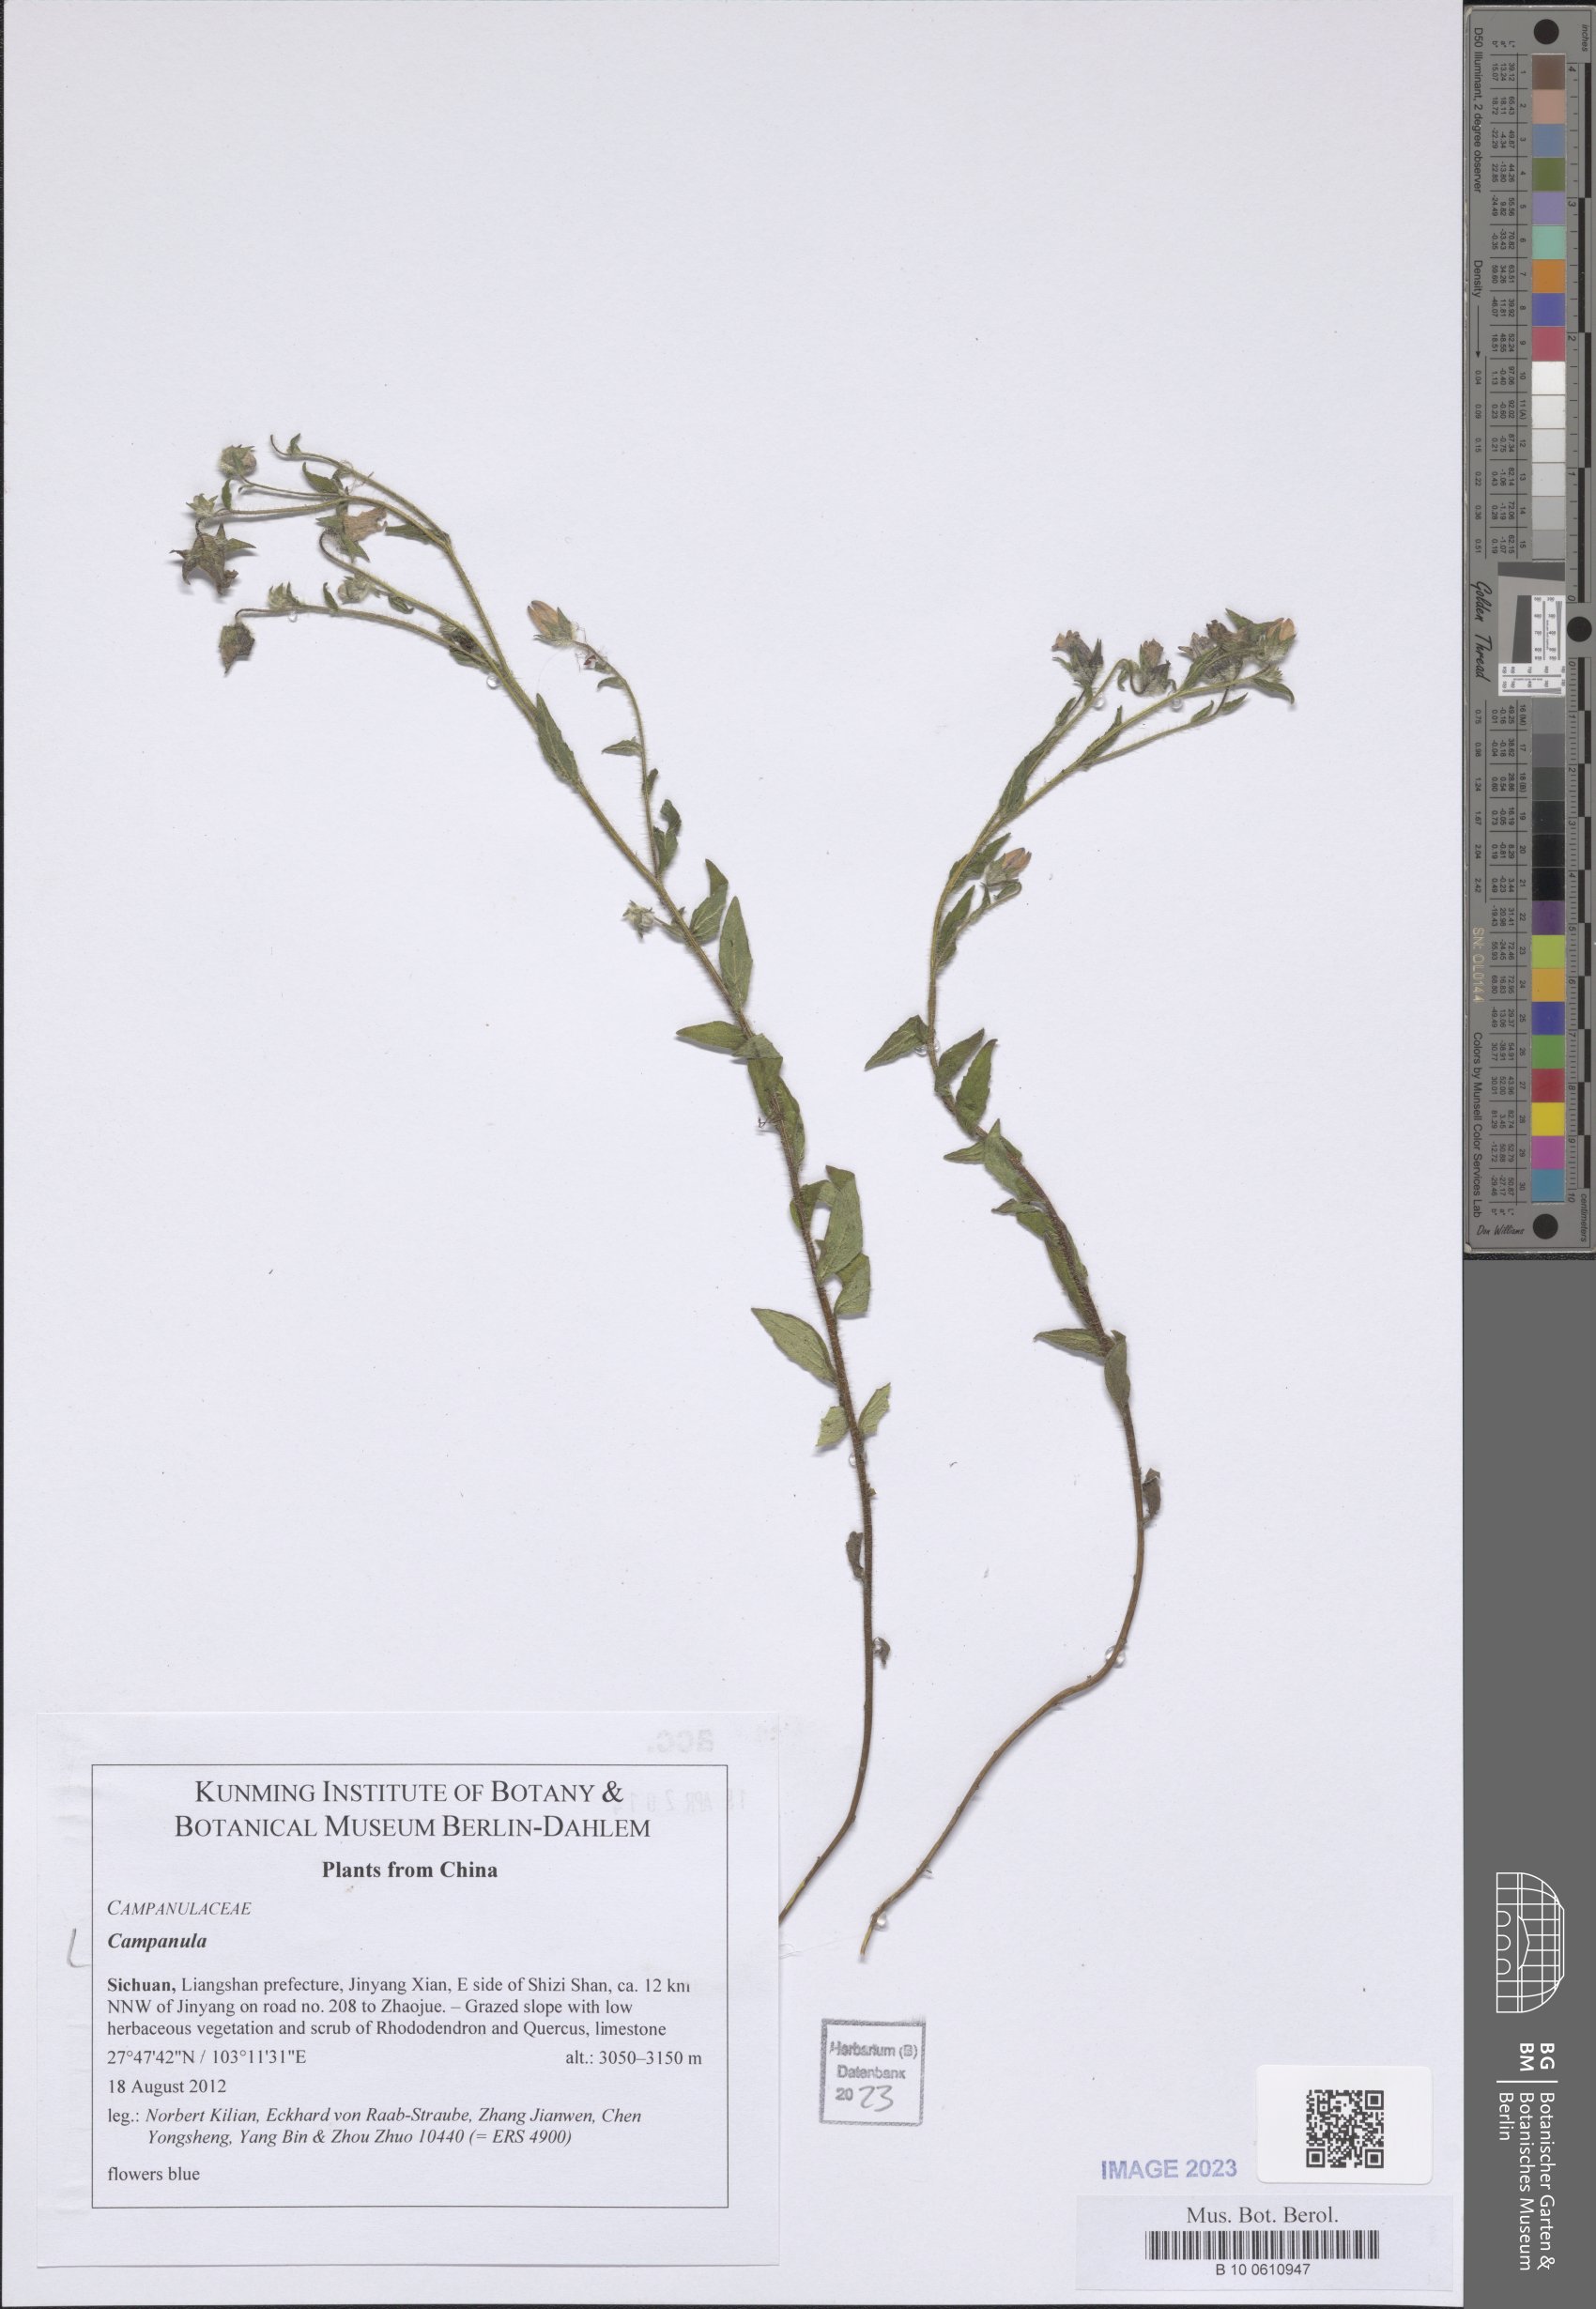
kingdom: Plantae
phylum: Tracheophyta
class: Magnoliopsida
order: Asterales
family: Campanulaceae
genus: Campanula
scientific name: Campanula
